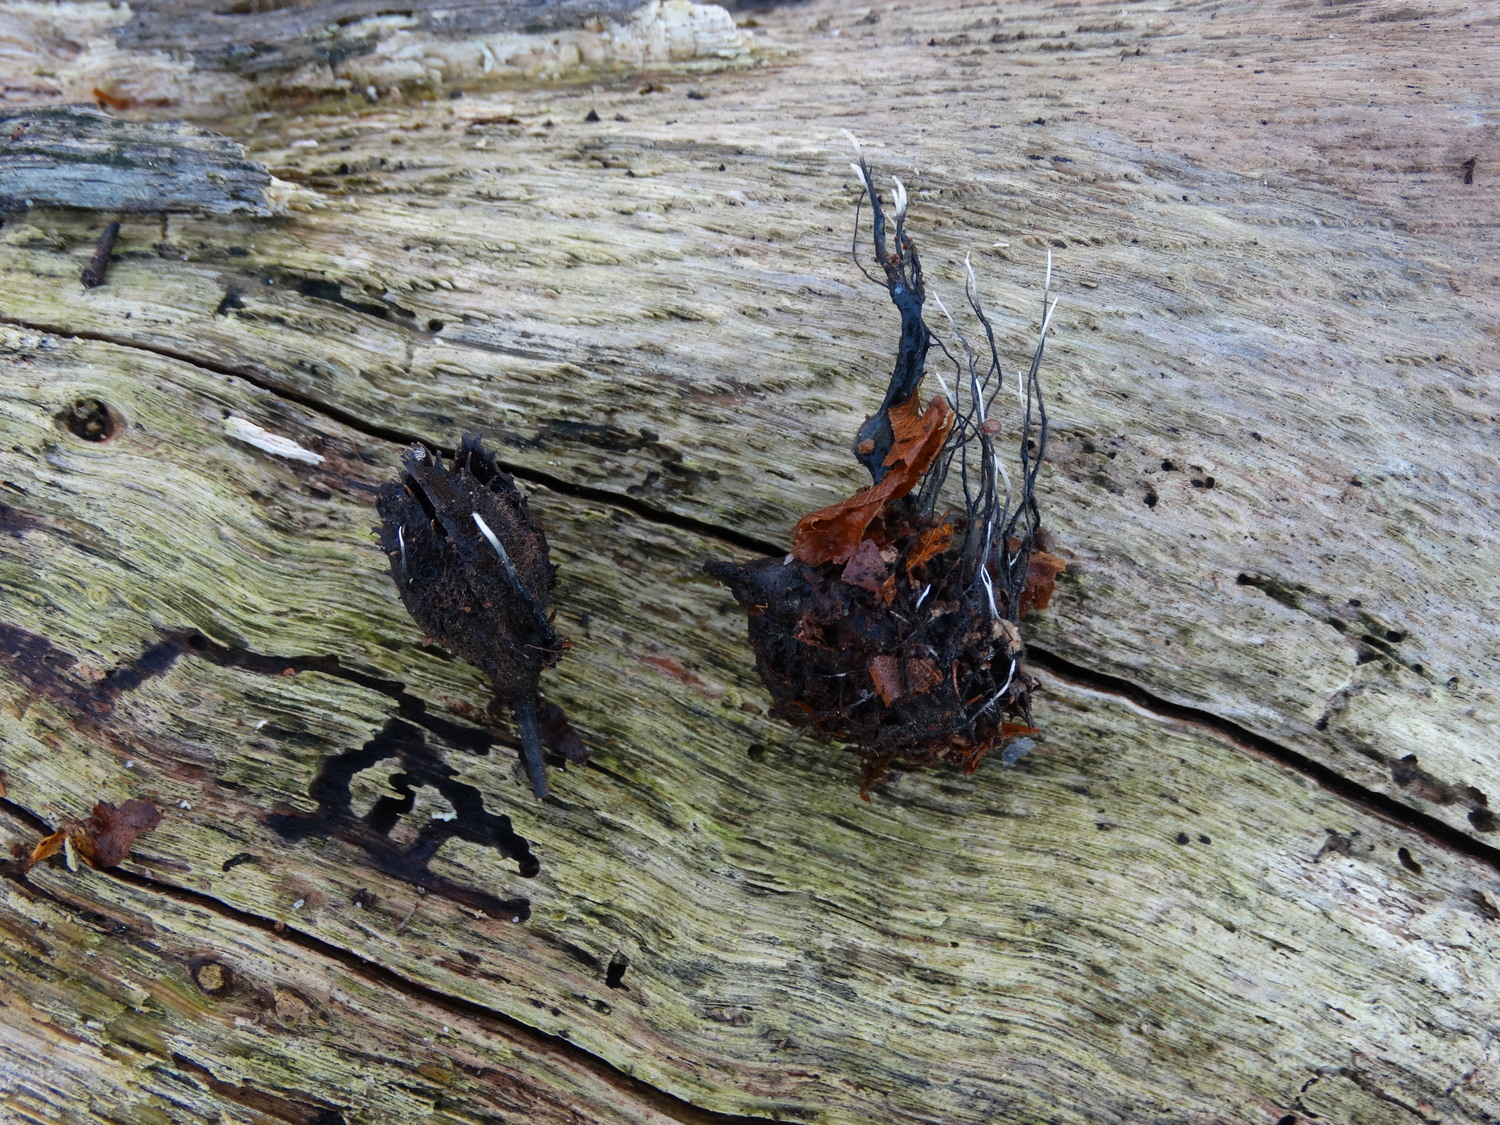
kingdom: Fungi
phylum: Ascomycota
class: Sordariomycetes
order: Xylariales
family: Xylariaceae
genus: Xylaria
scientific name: Xylaria carpophila
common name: bogskål-stødsvamp
